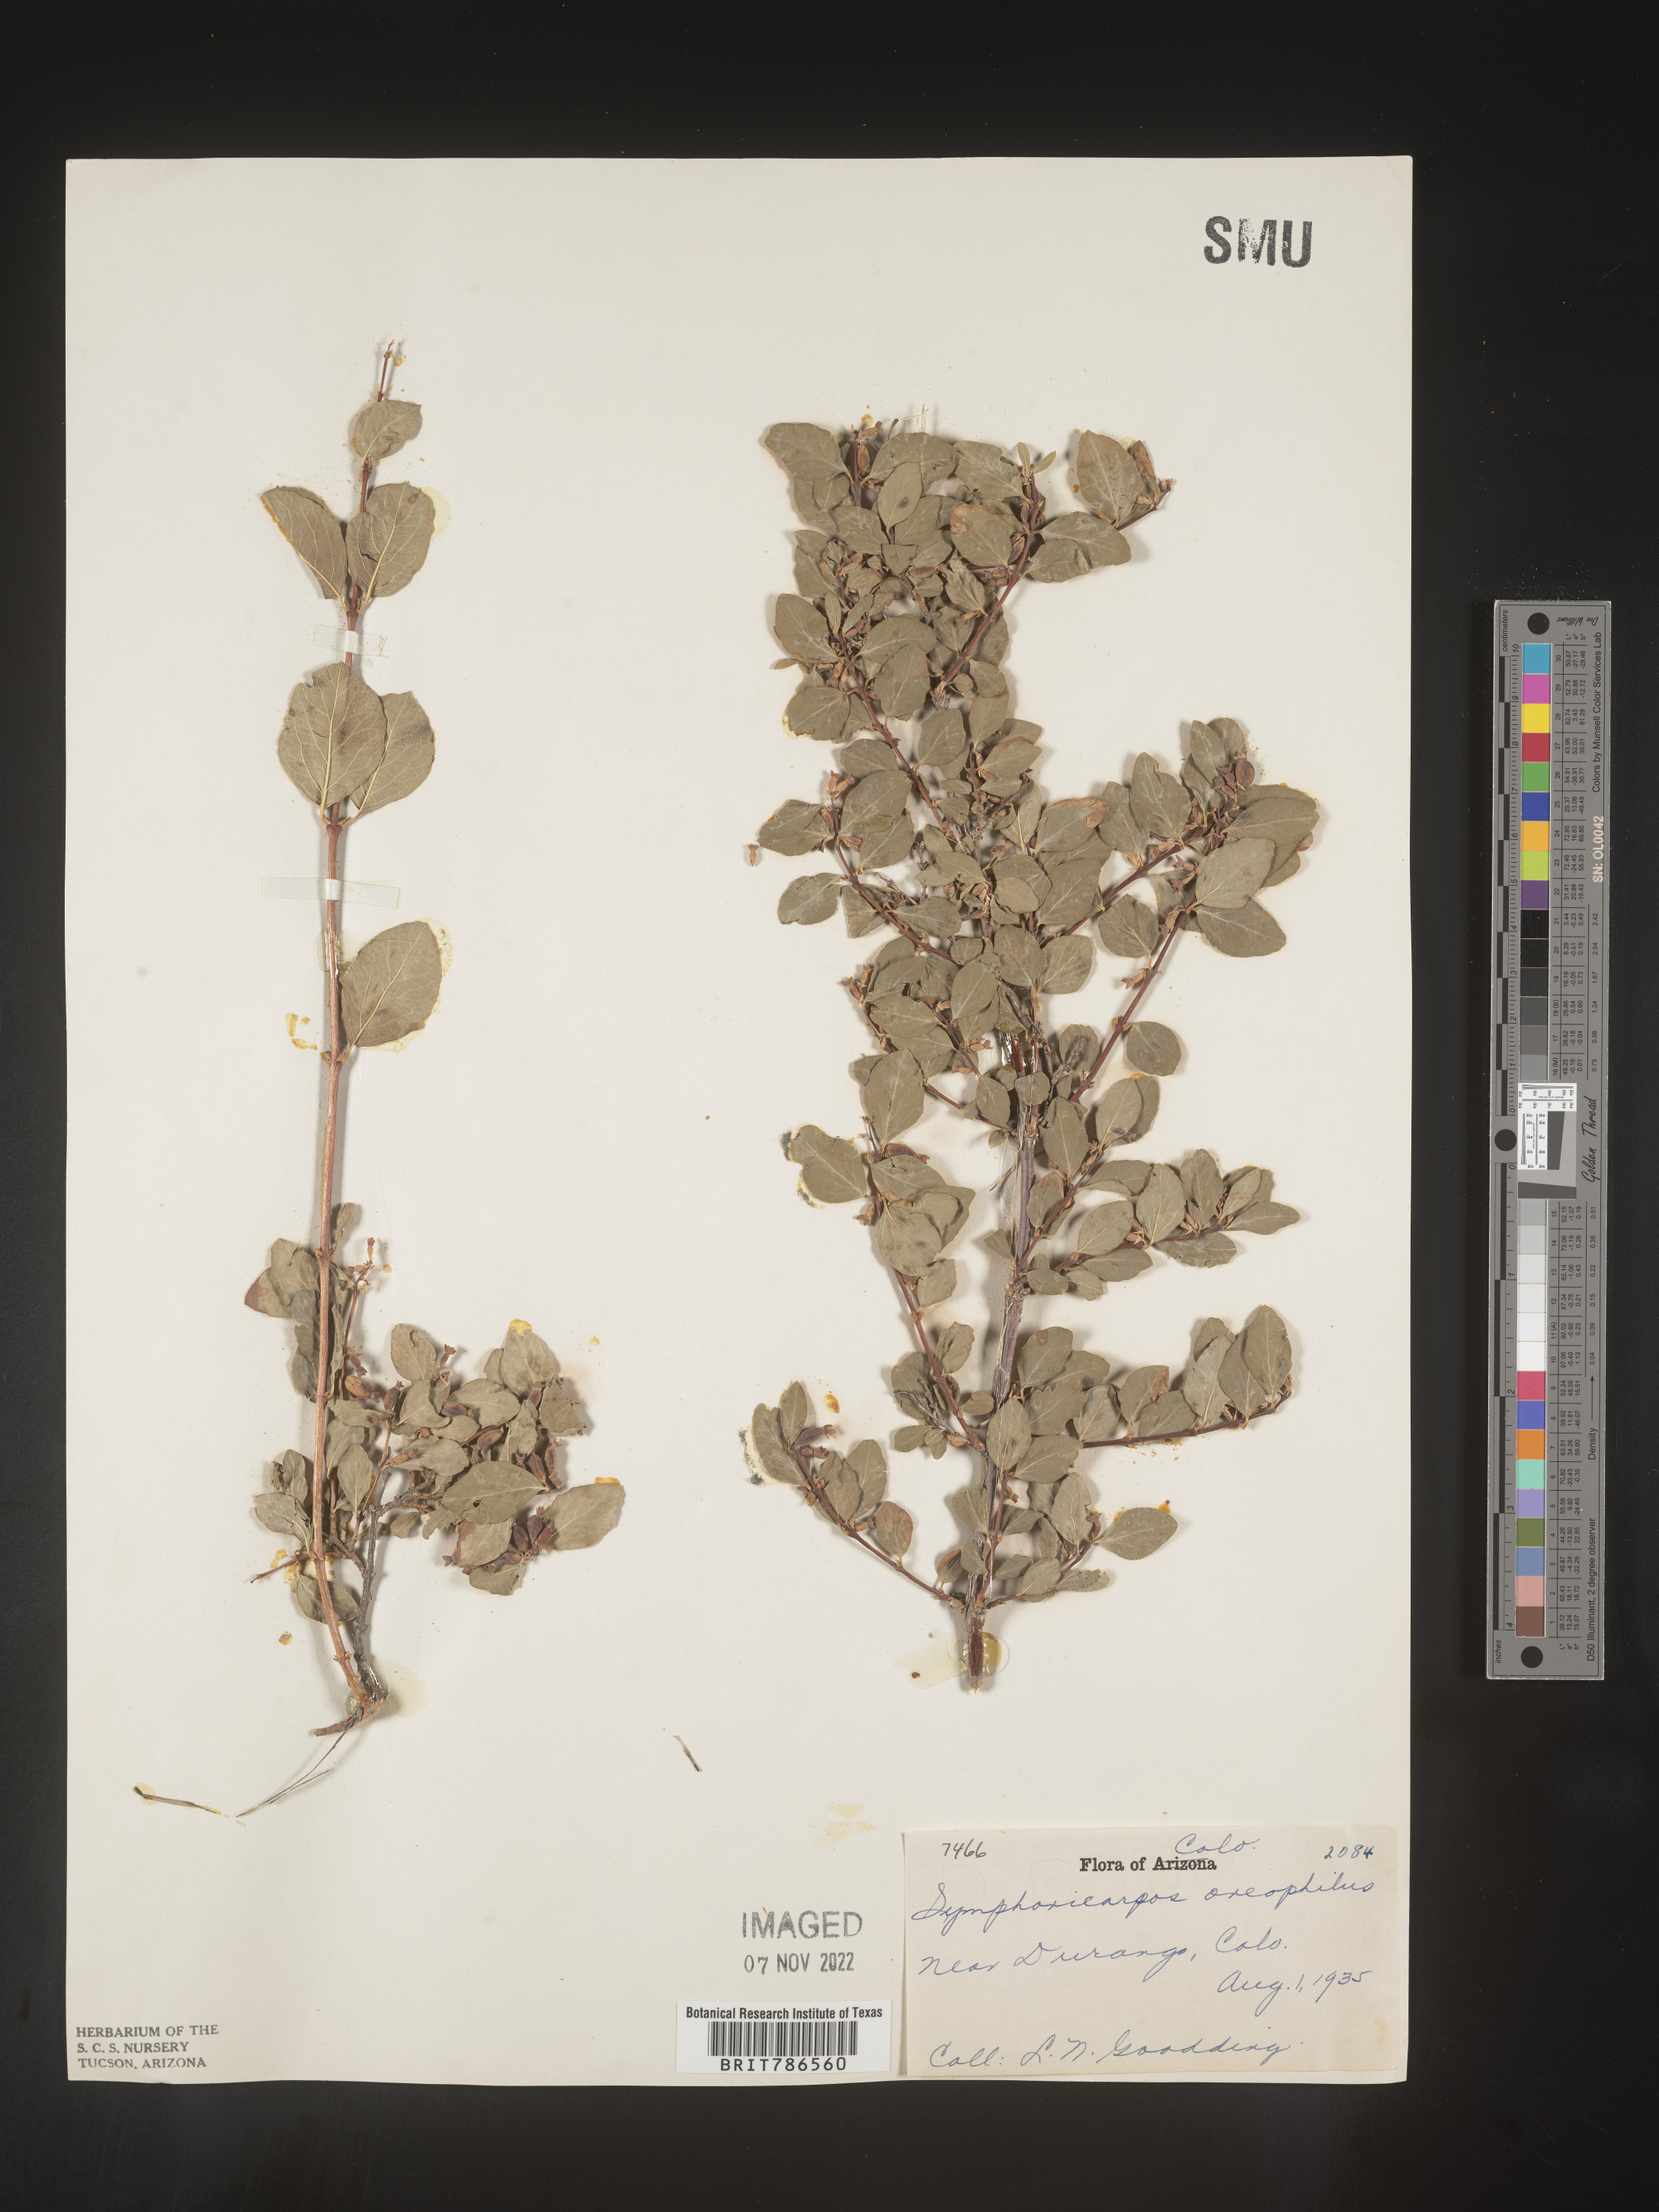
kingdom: Plantae
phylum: Tracheophyta
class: Magnoliopsida
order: Dipsacales
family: Caprifoliaceae
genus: Symphoricarpos
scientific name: Symphoricarpos oreophilus
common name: Mountain snowberry
